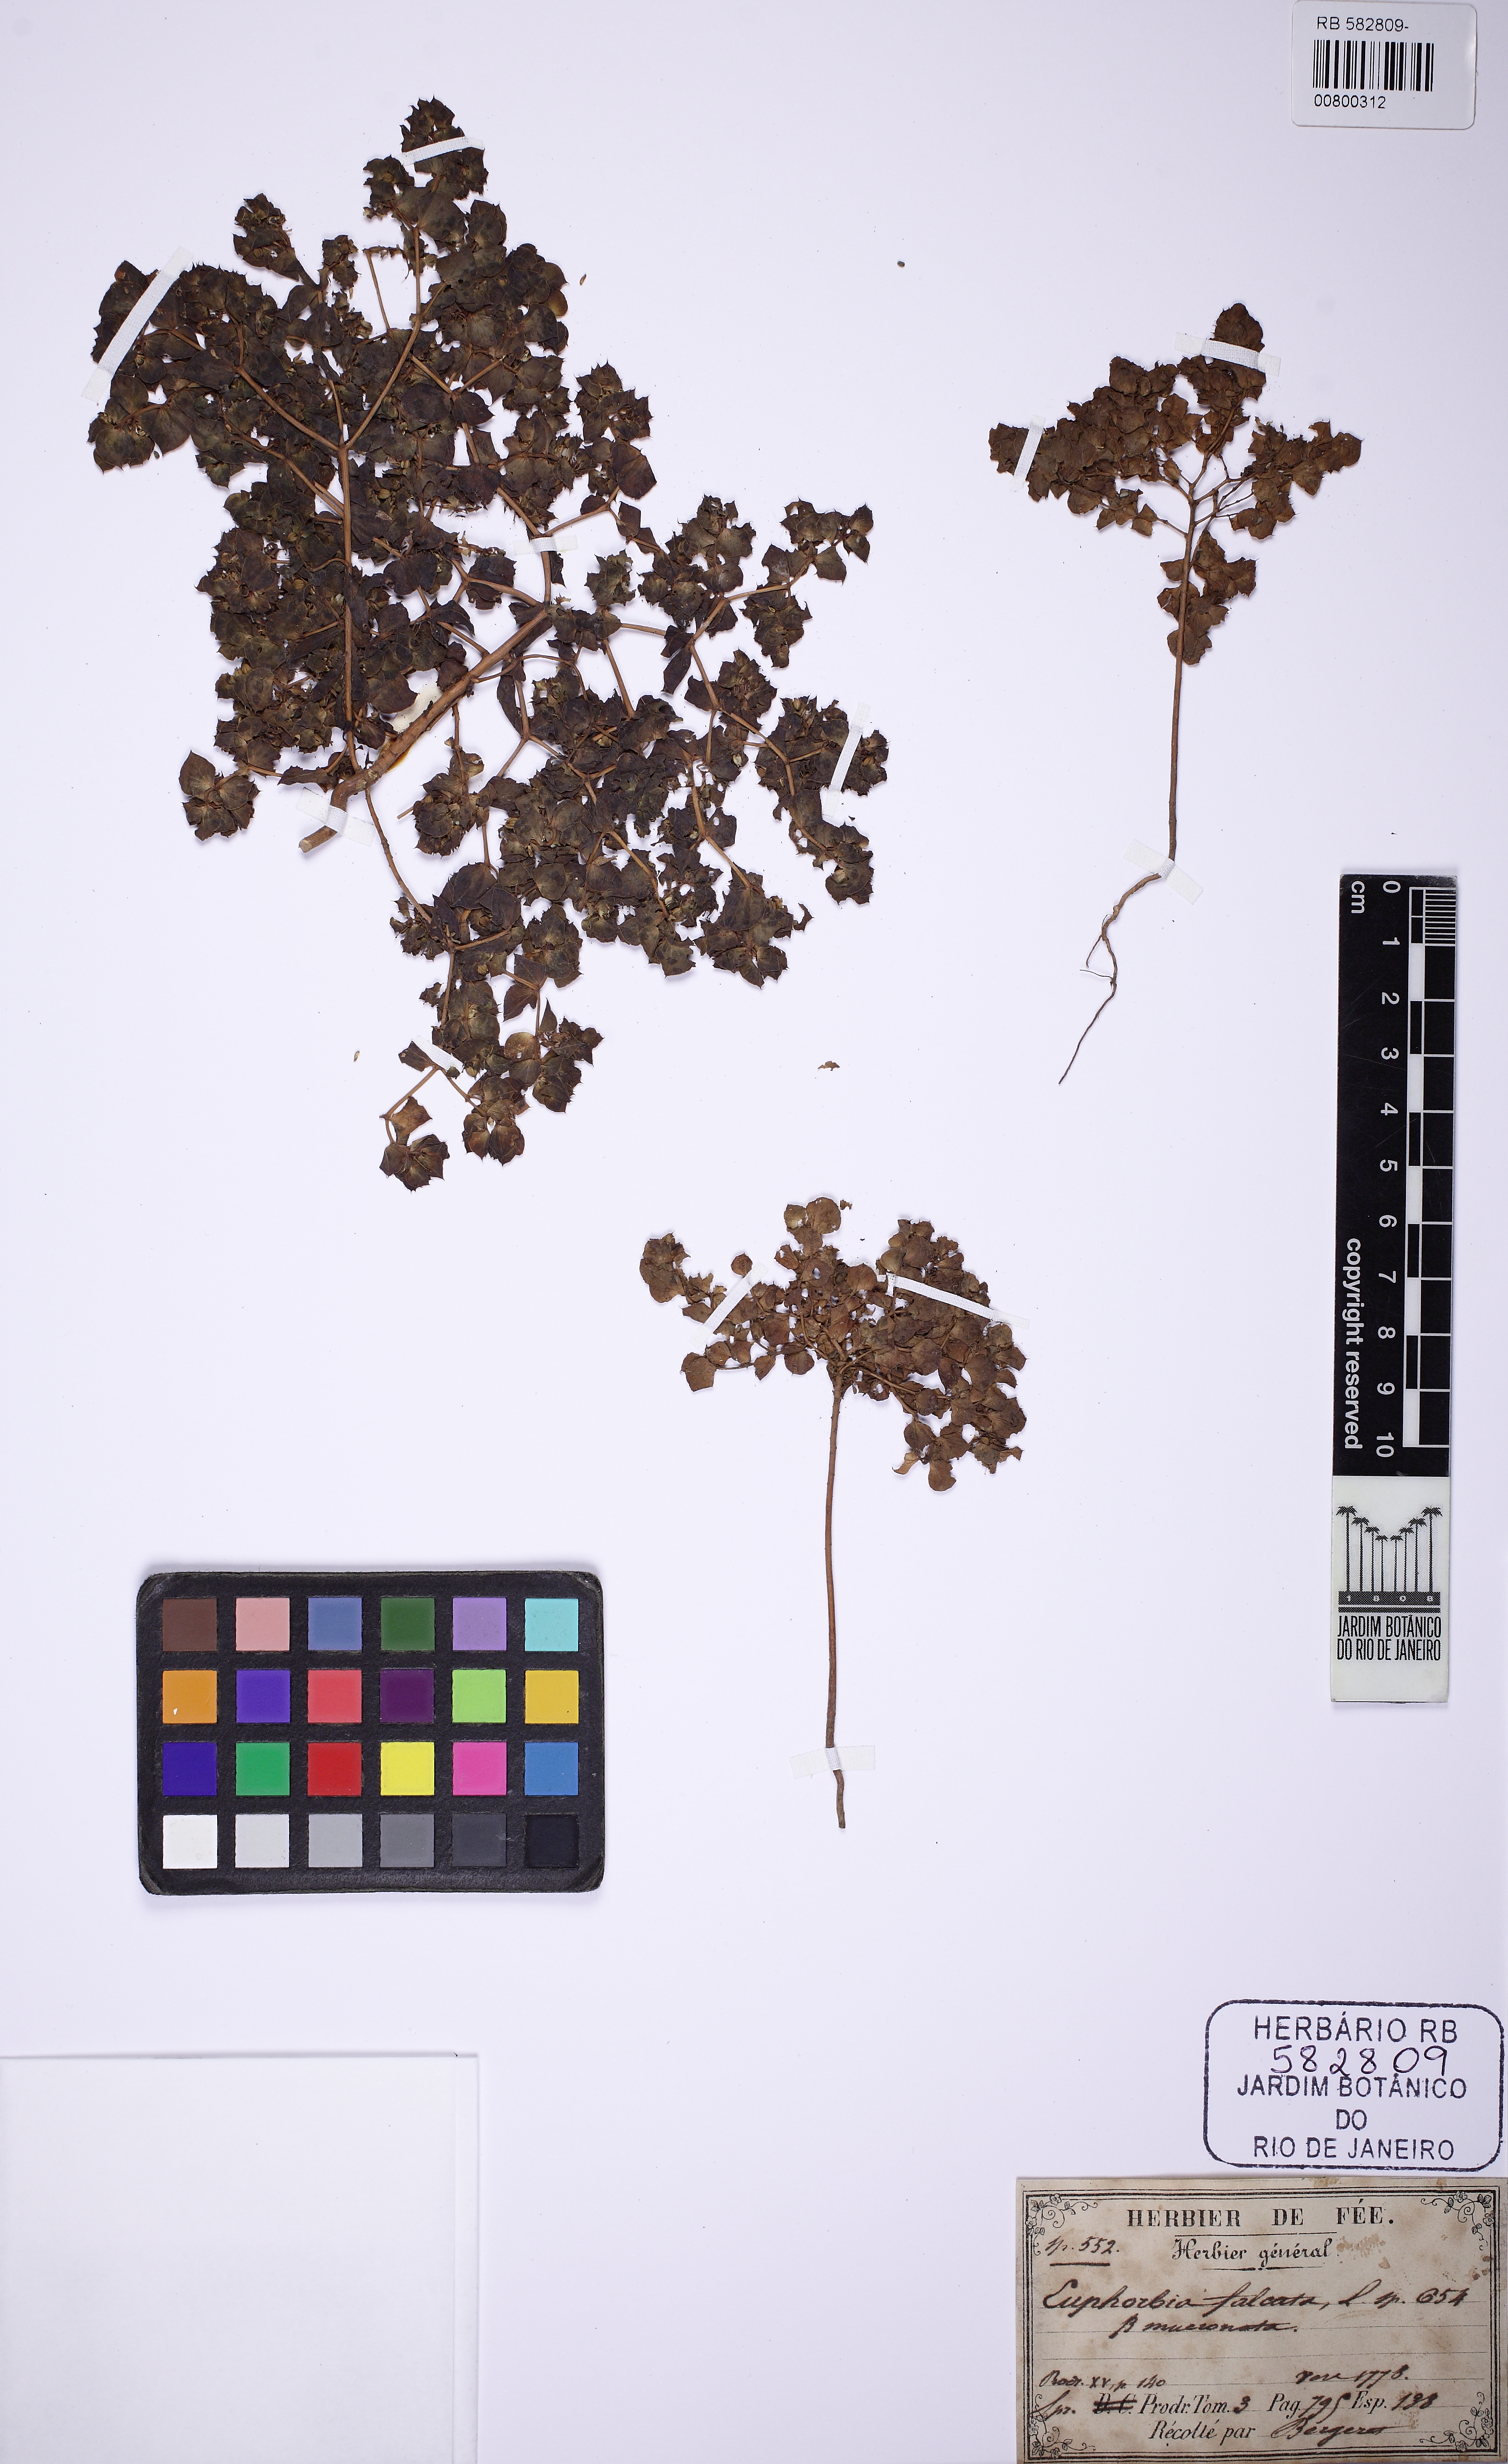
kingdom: Plantae
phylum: Tracheophyta
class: Magnoliopsida
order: Malpighiales
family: Euphorbiaceae
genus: Euphorbia
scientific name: Euphorbia falcata
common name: Sickle spurge
